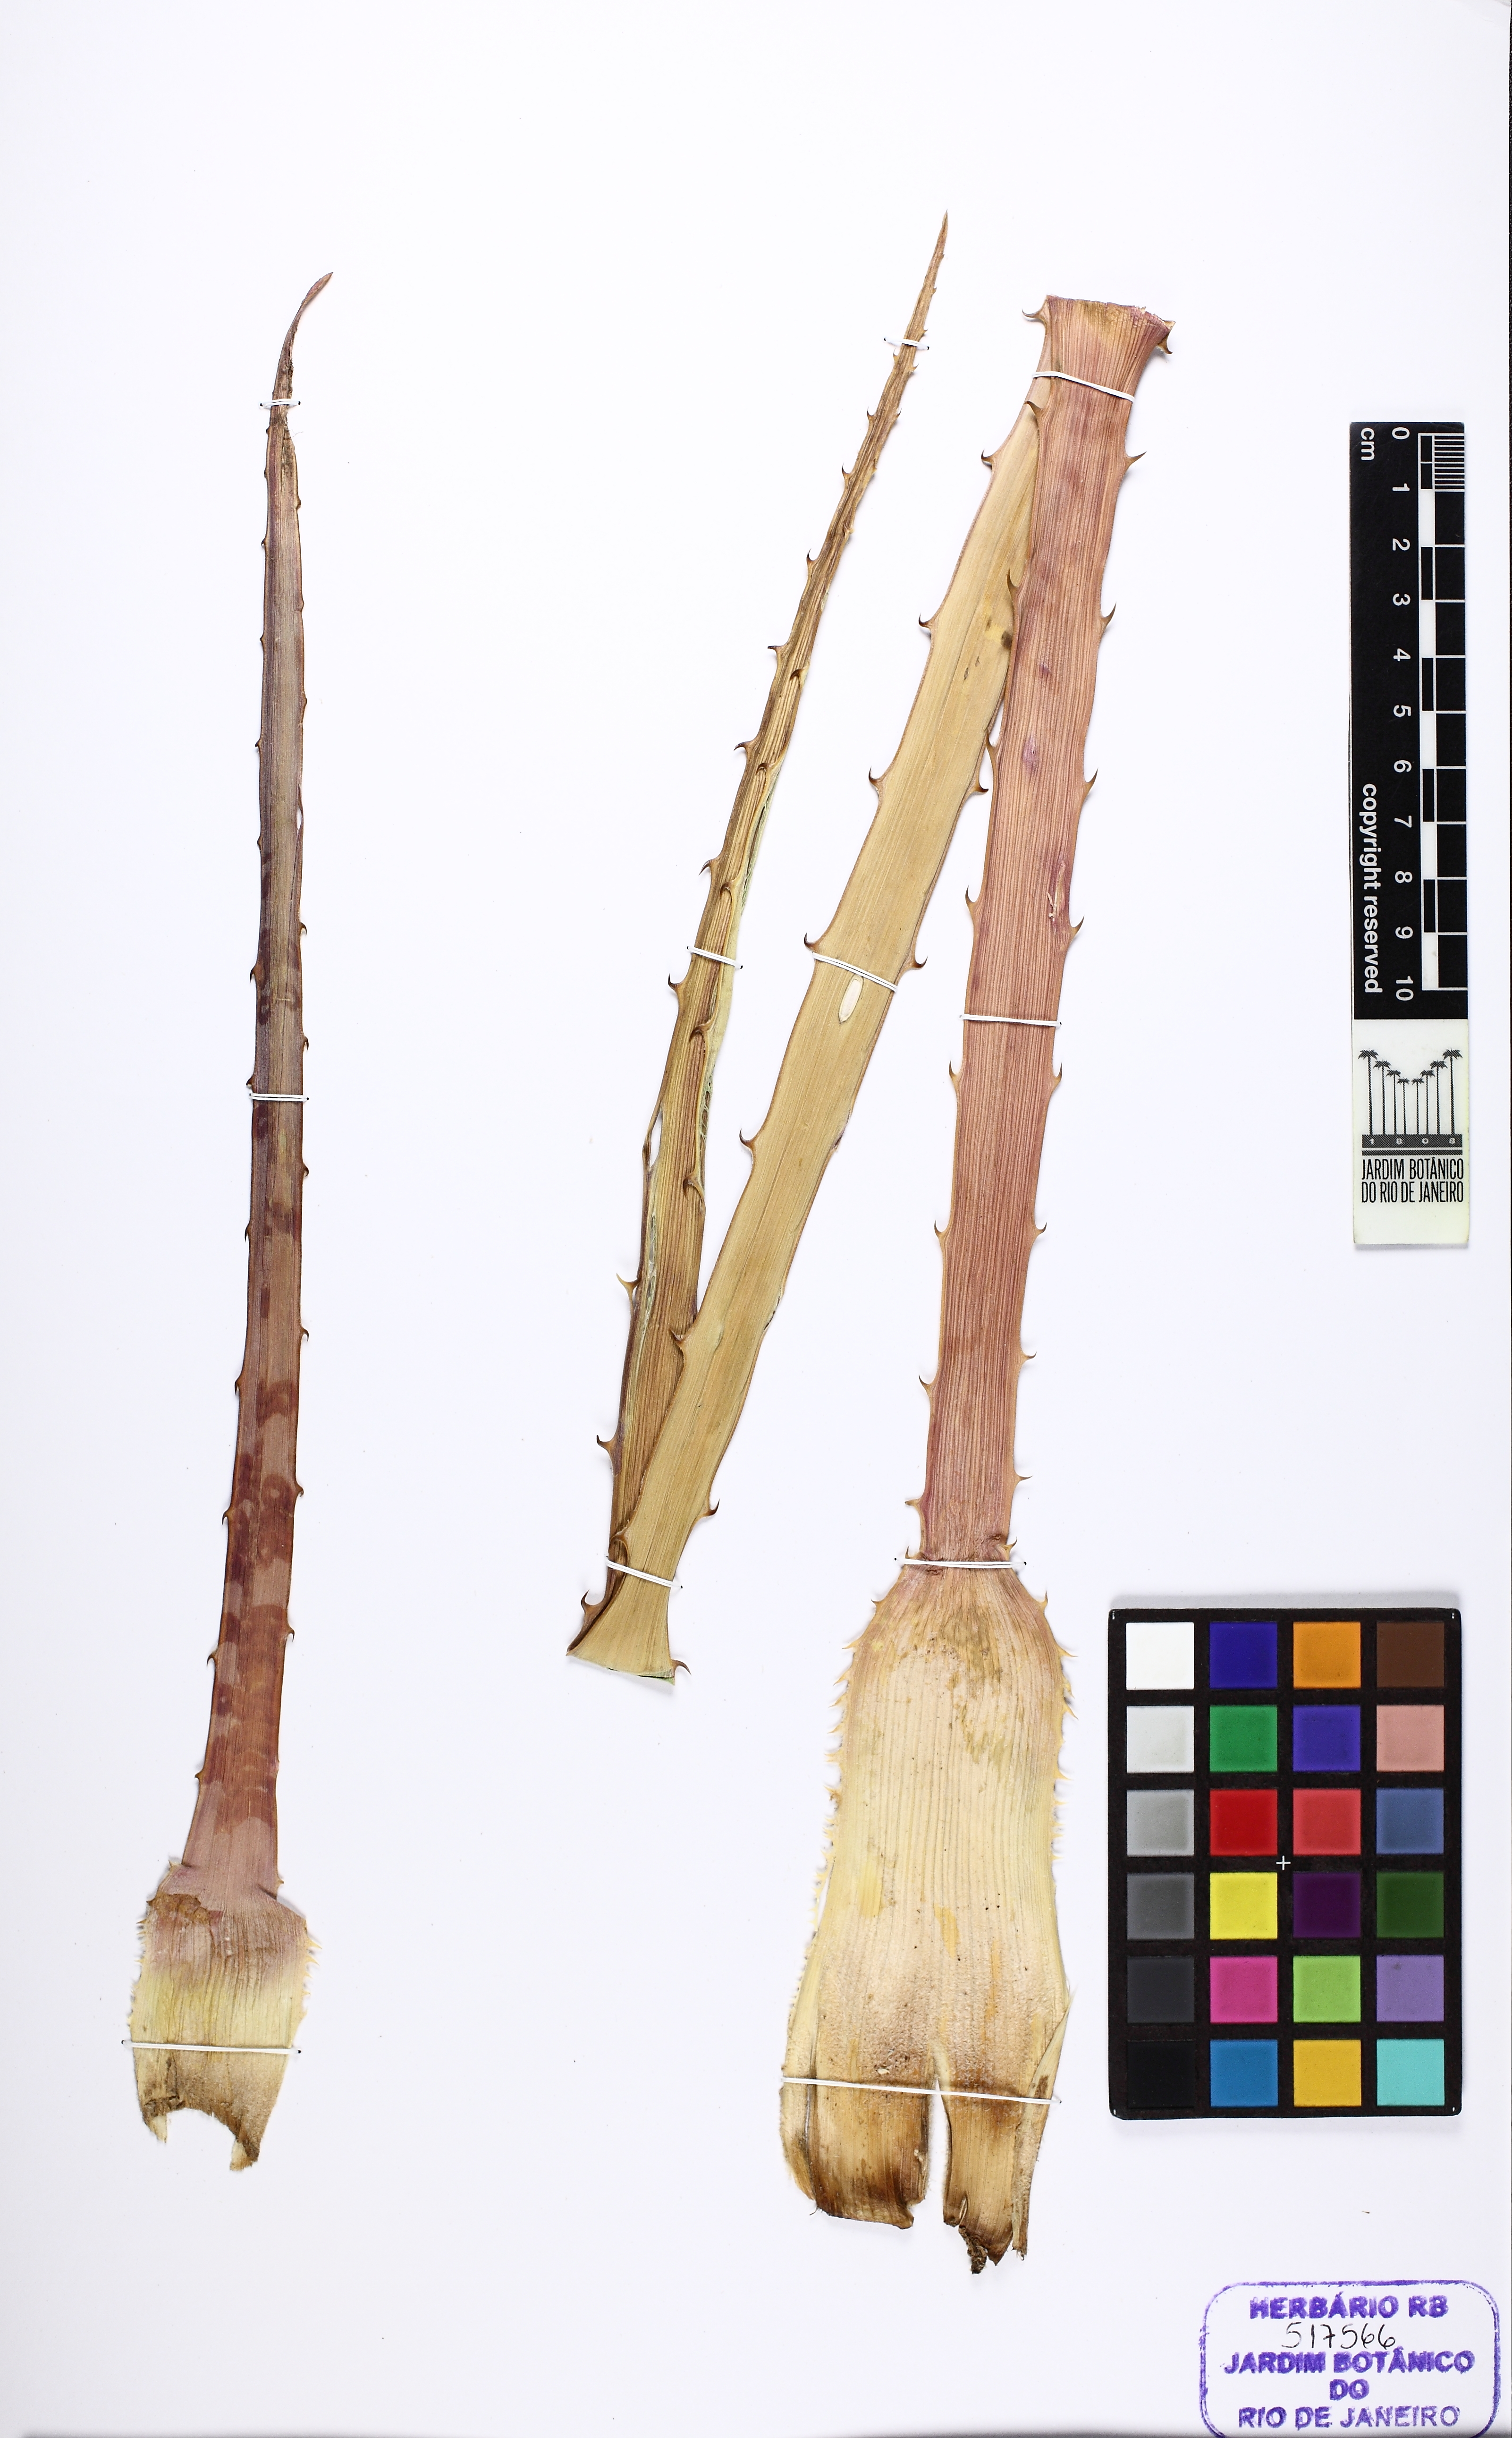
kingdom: Plantae
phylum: Tracheophyta
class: Liliopsida
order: Poales
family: Bromeliaceae
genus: Bromelia
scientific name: Bromelia serra
